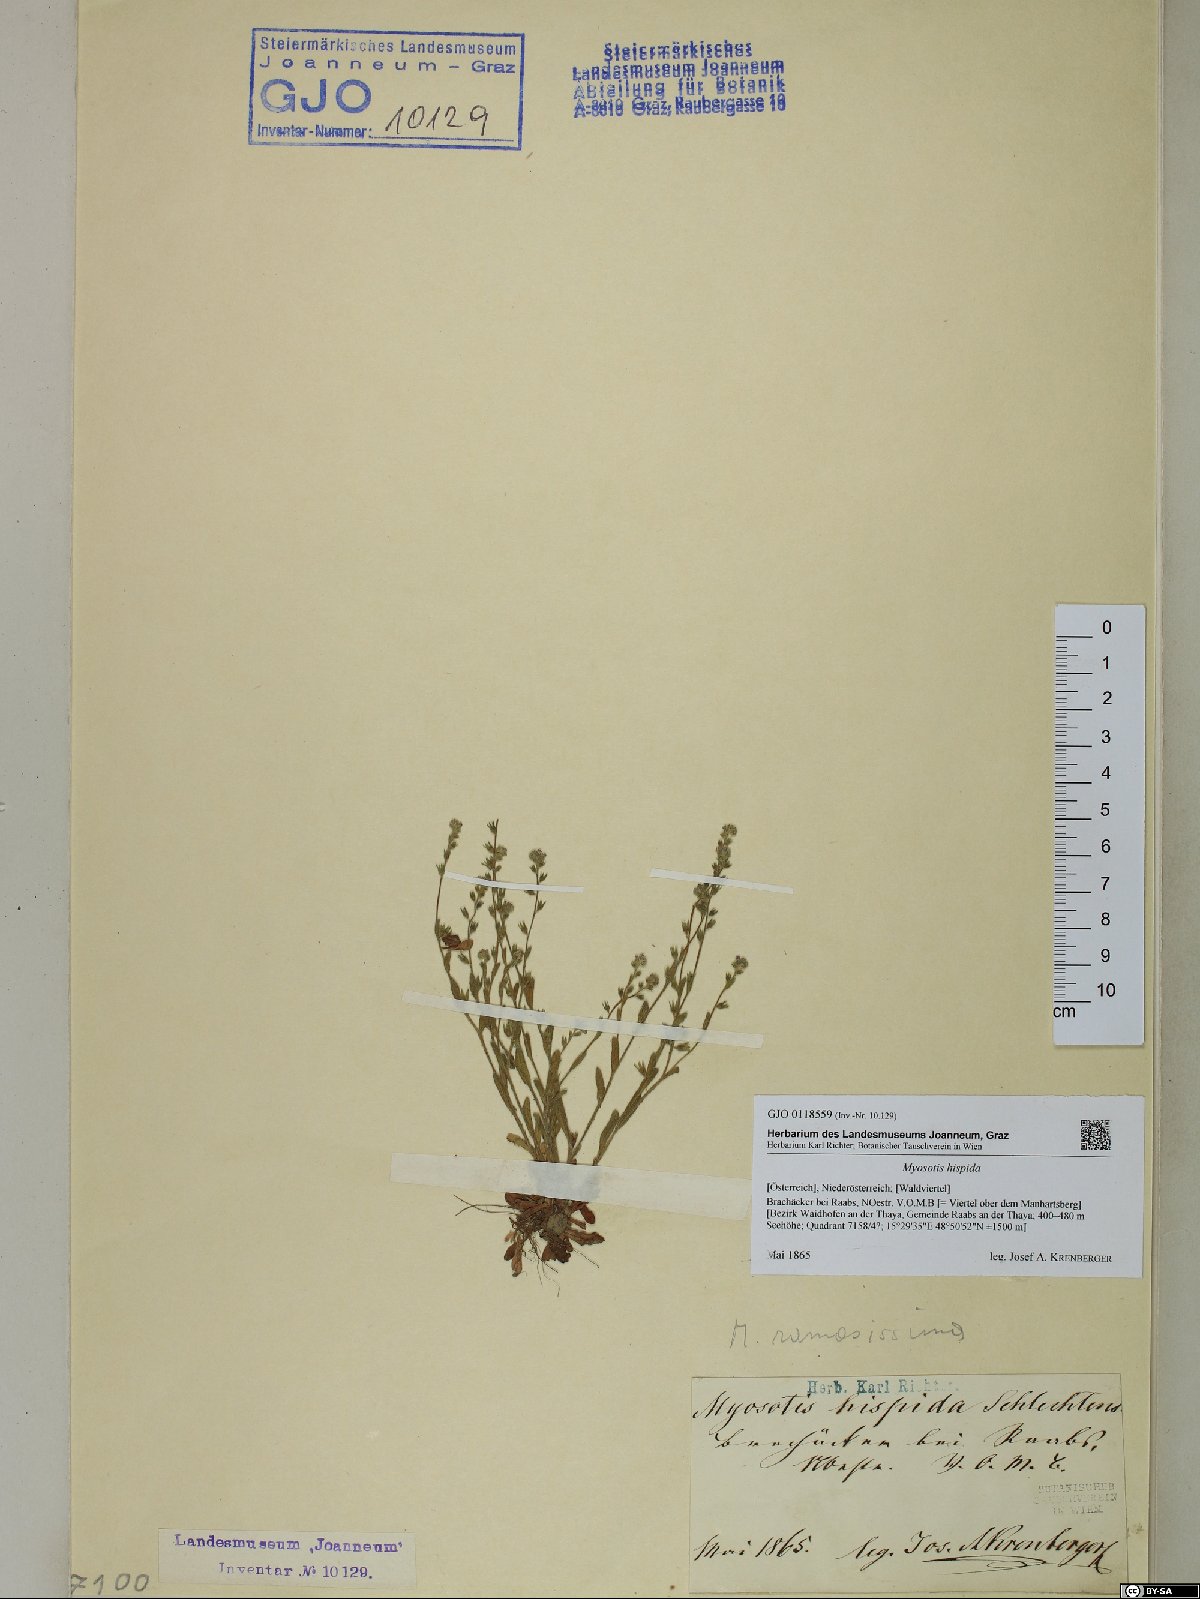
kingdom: Plantae
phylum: Tracheophyta
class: Magnoliopsida
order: Boraginales
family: Boraginaceae
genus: Myosotis
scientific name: Myosotis ramosissima
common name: Early forget-me-not
